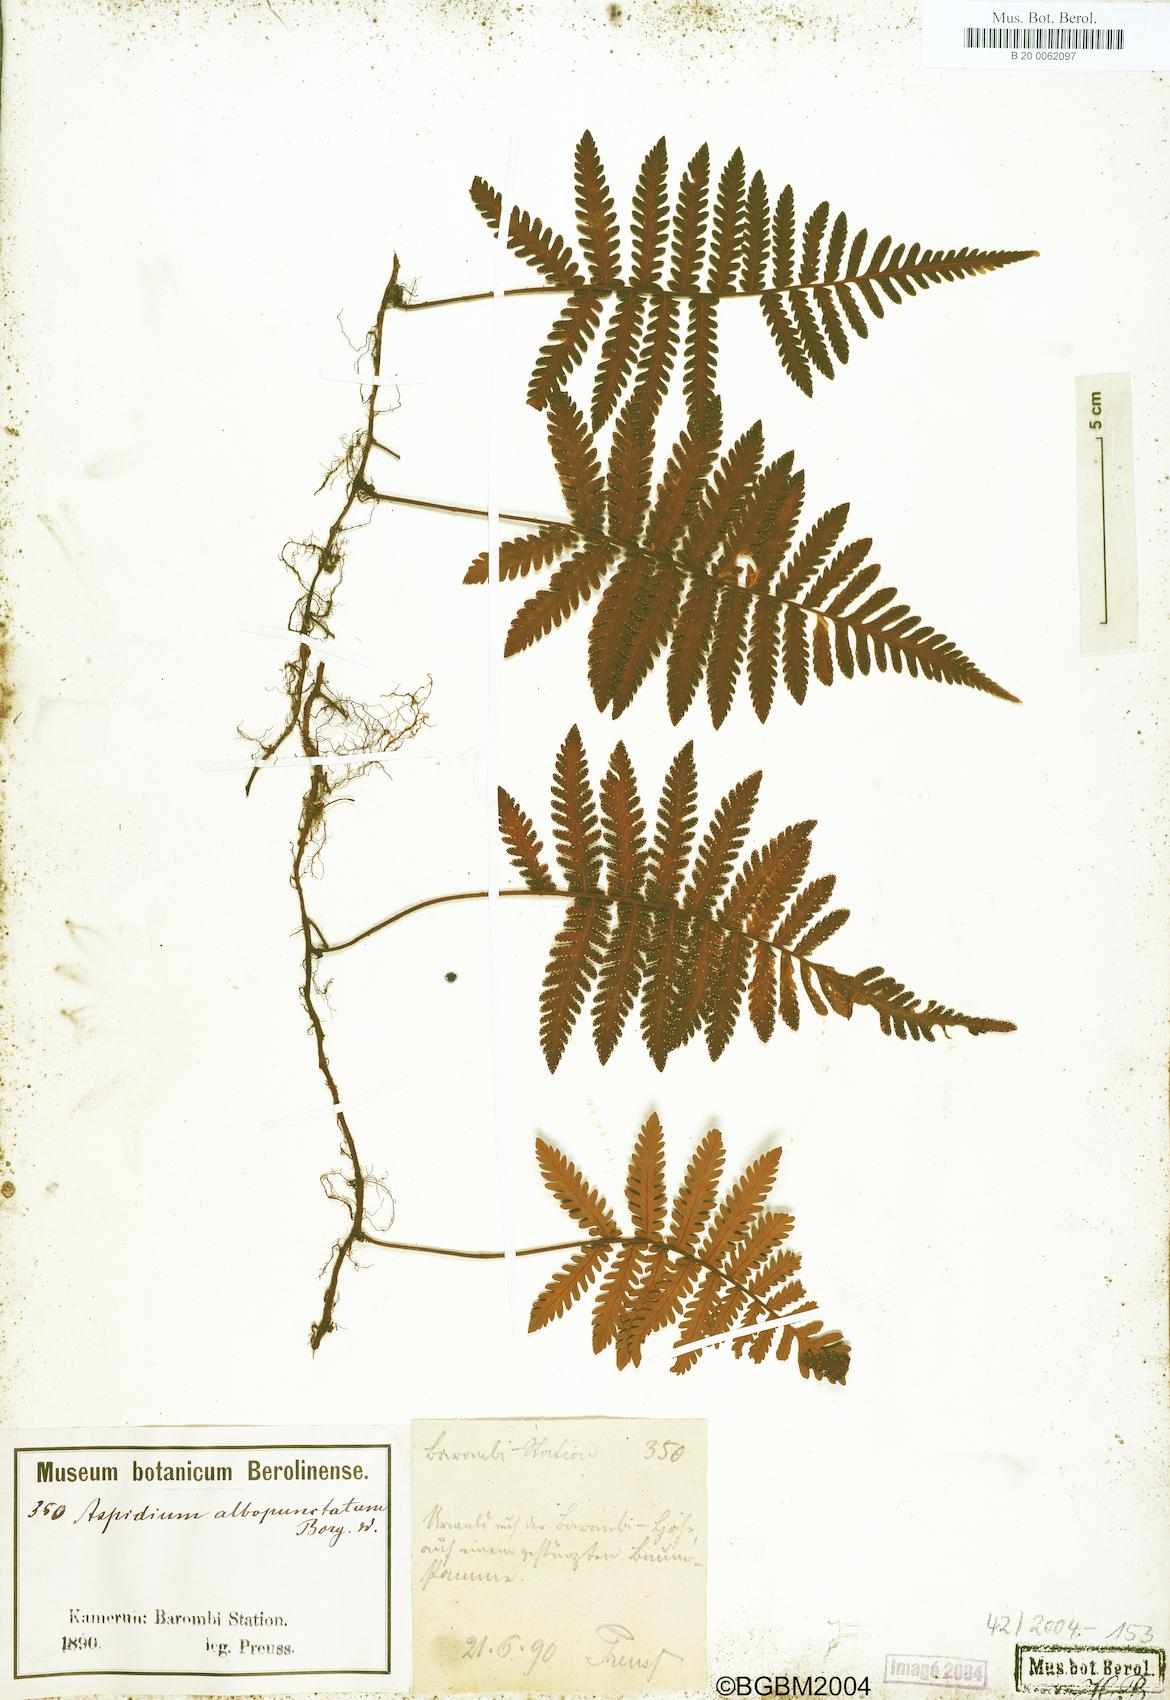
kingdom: Plantae
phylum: Tracheophyta
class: Polypodiopsida
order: Polypodiales
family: Tectariaceae
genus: Arthropteris
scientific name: Arthropteris orientalis
